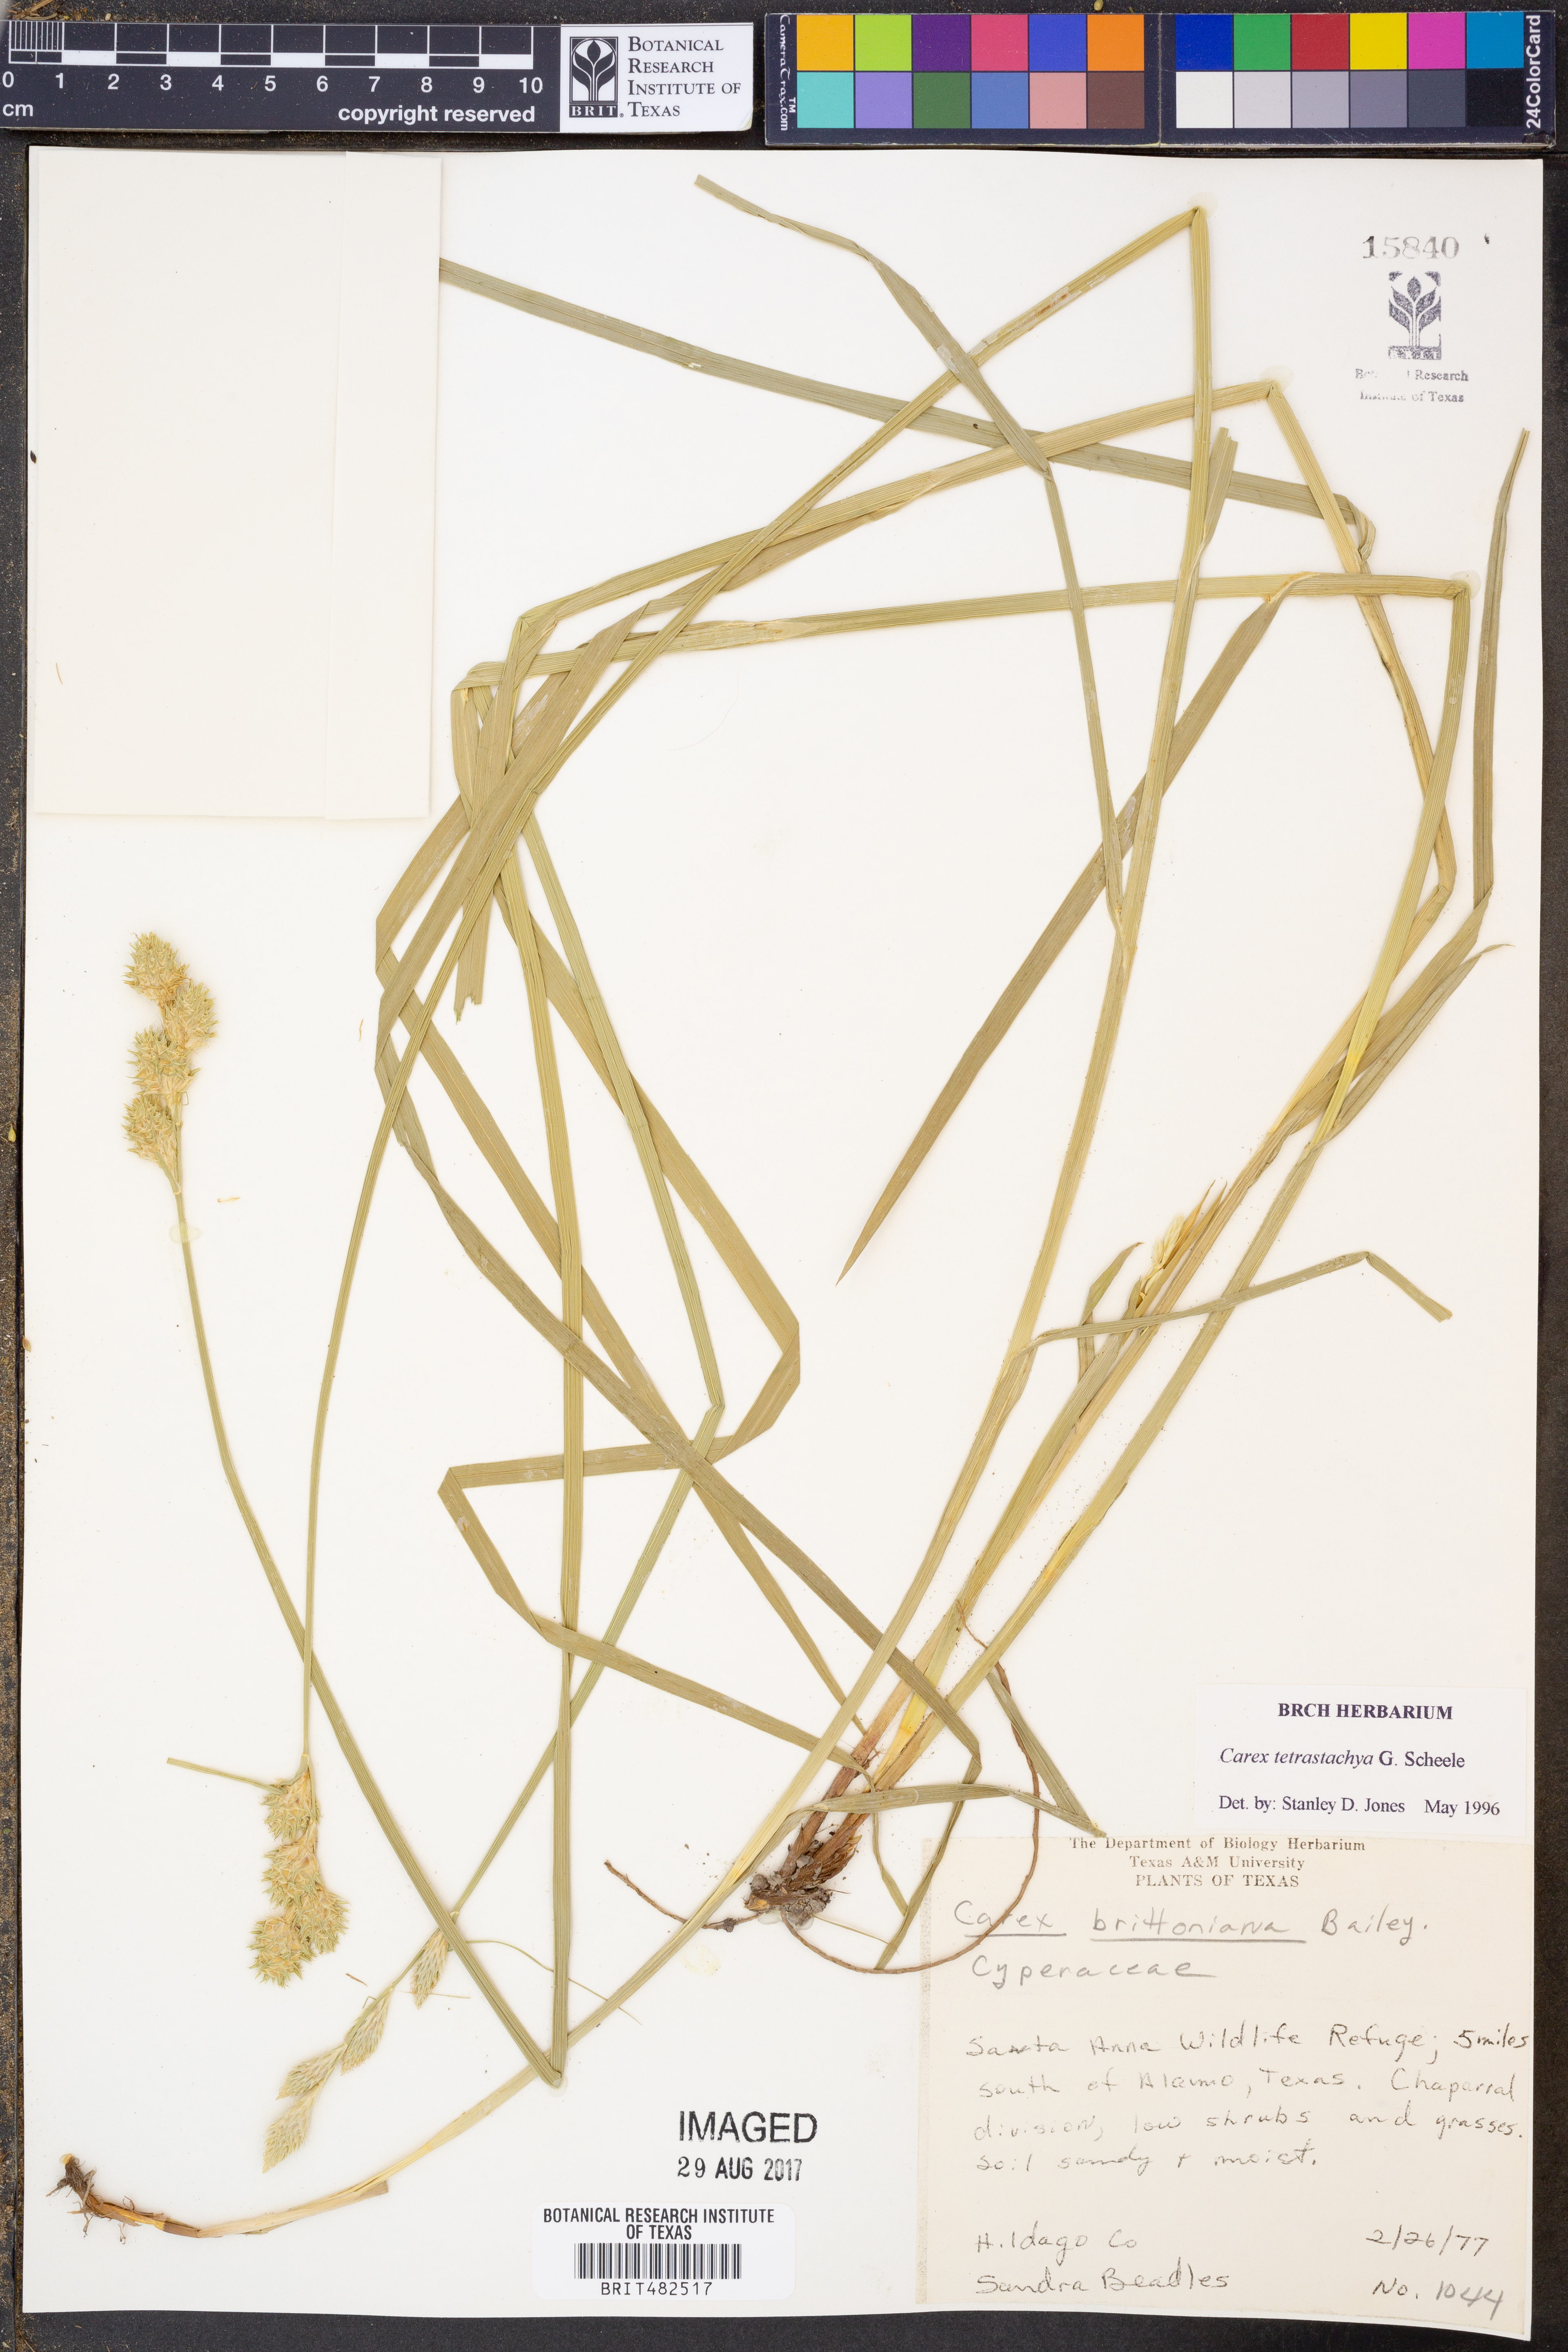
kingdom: Plantae
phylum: Tracheophyta
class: Liliopsida
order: Poales
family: Cyperaceae
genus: Carex
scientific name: Carex tetrastachya
